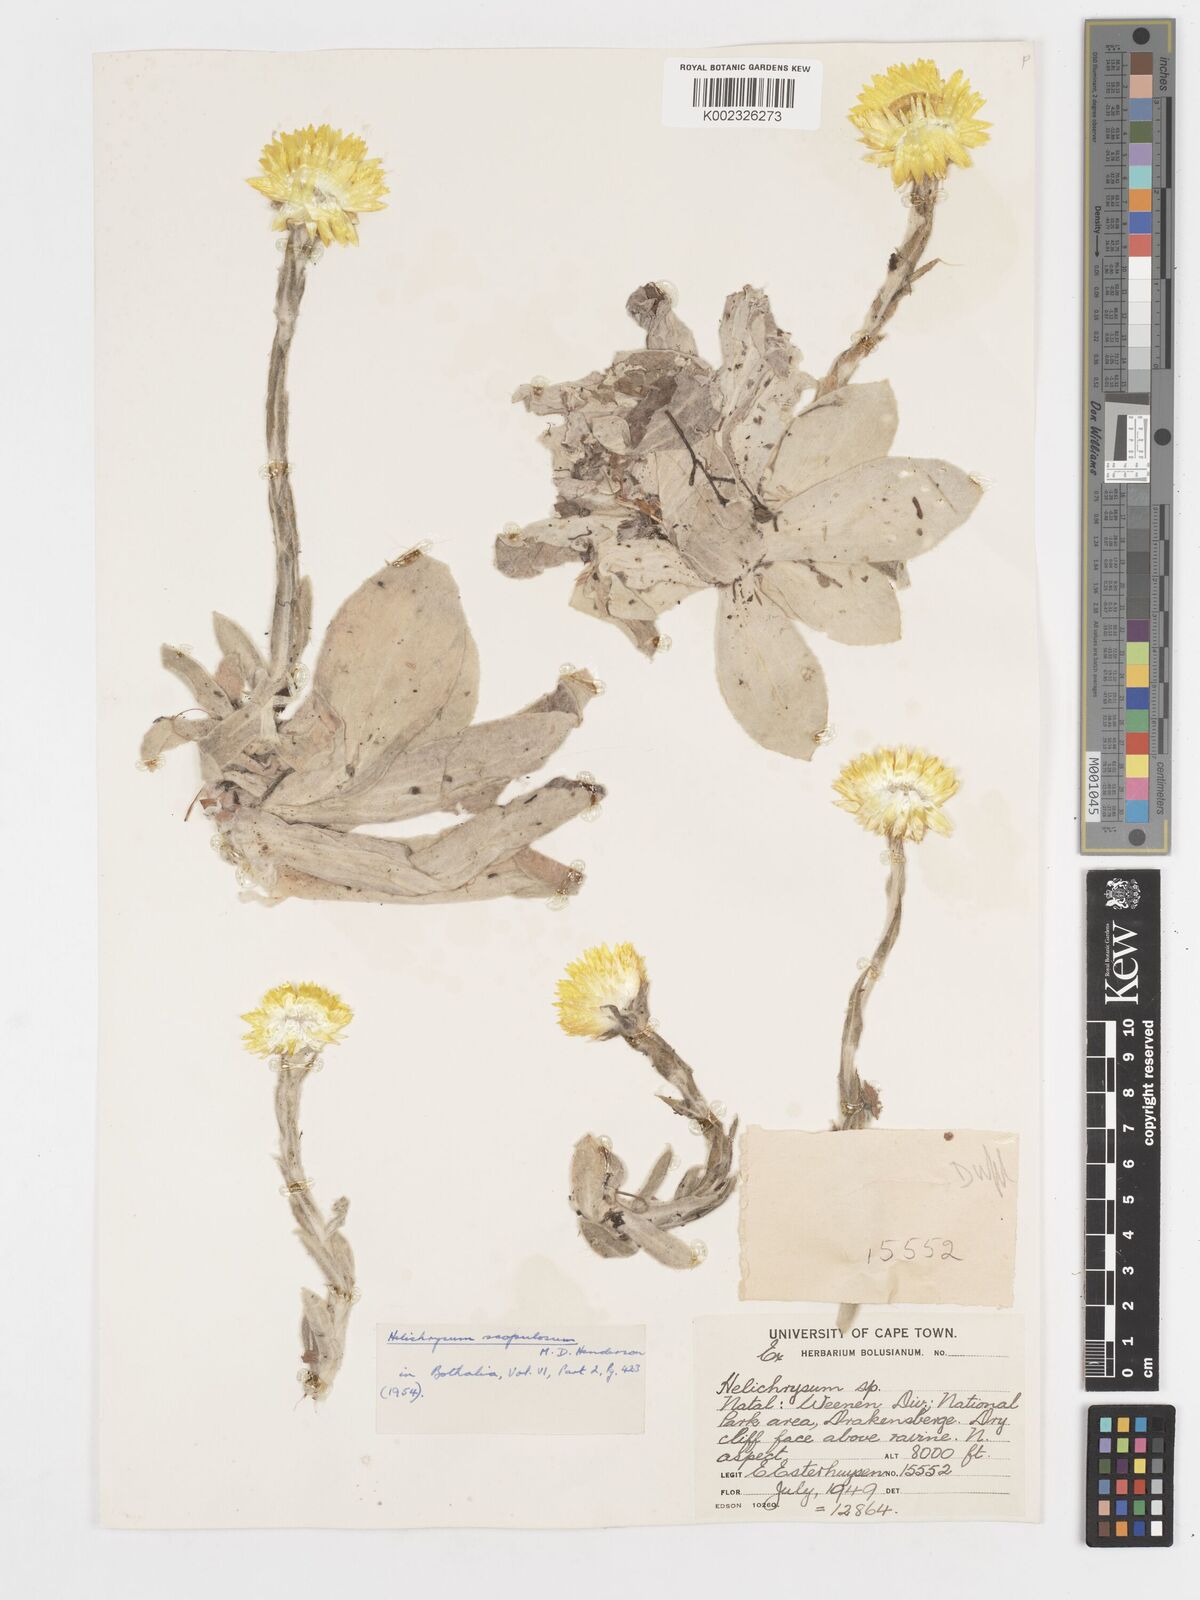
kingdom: Plantae
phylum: Tracheophyta
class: Magnoliopsida
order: Asterales
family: Asteraceae
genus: Helichrysum
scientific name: Helichrysum aureum
